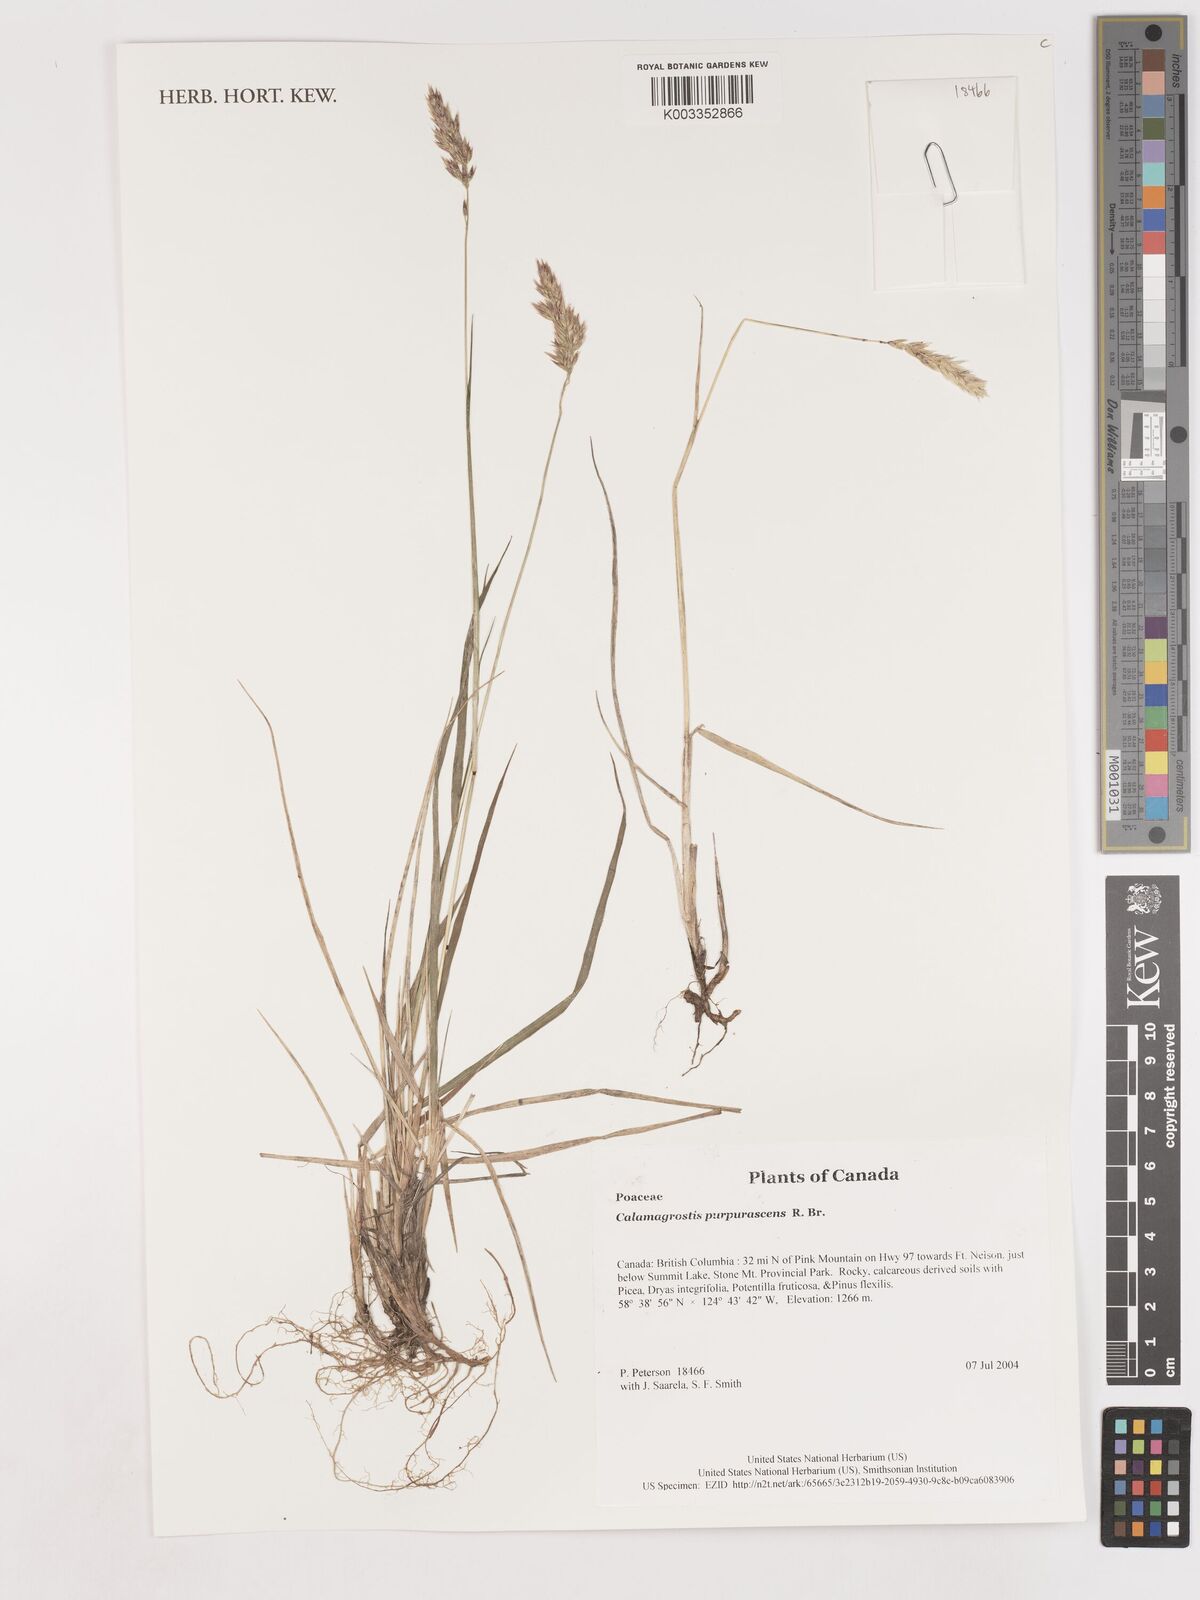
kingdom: Plantae
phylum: Tracheophyta
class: Liliopsida
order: Poales
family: Poaceae
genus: Calamagrostis
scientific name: Calamagrostis purpurascens
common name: Purple reedgrass
